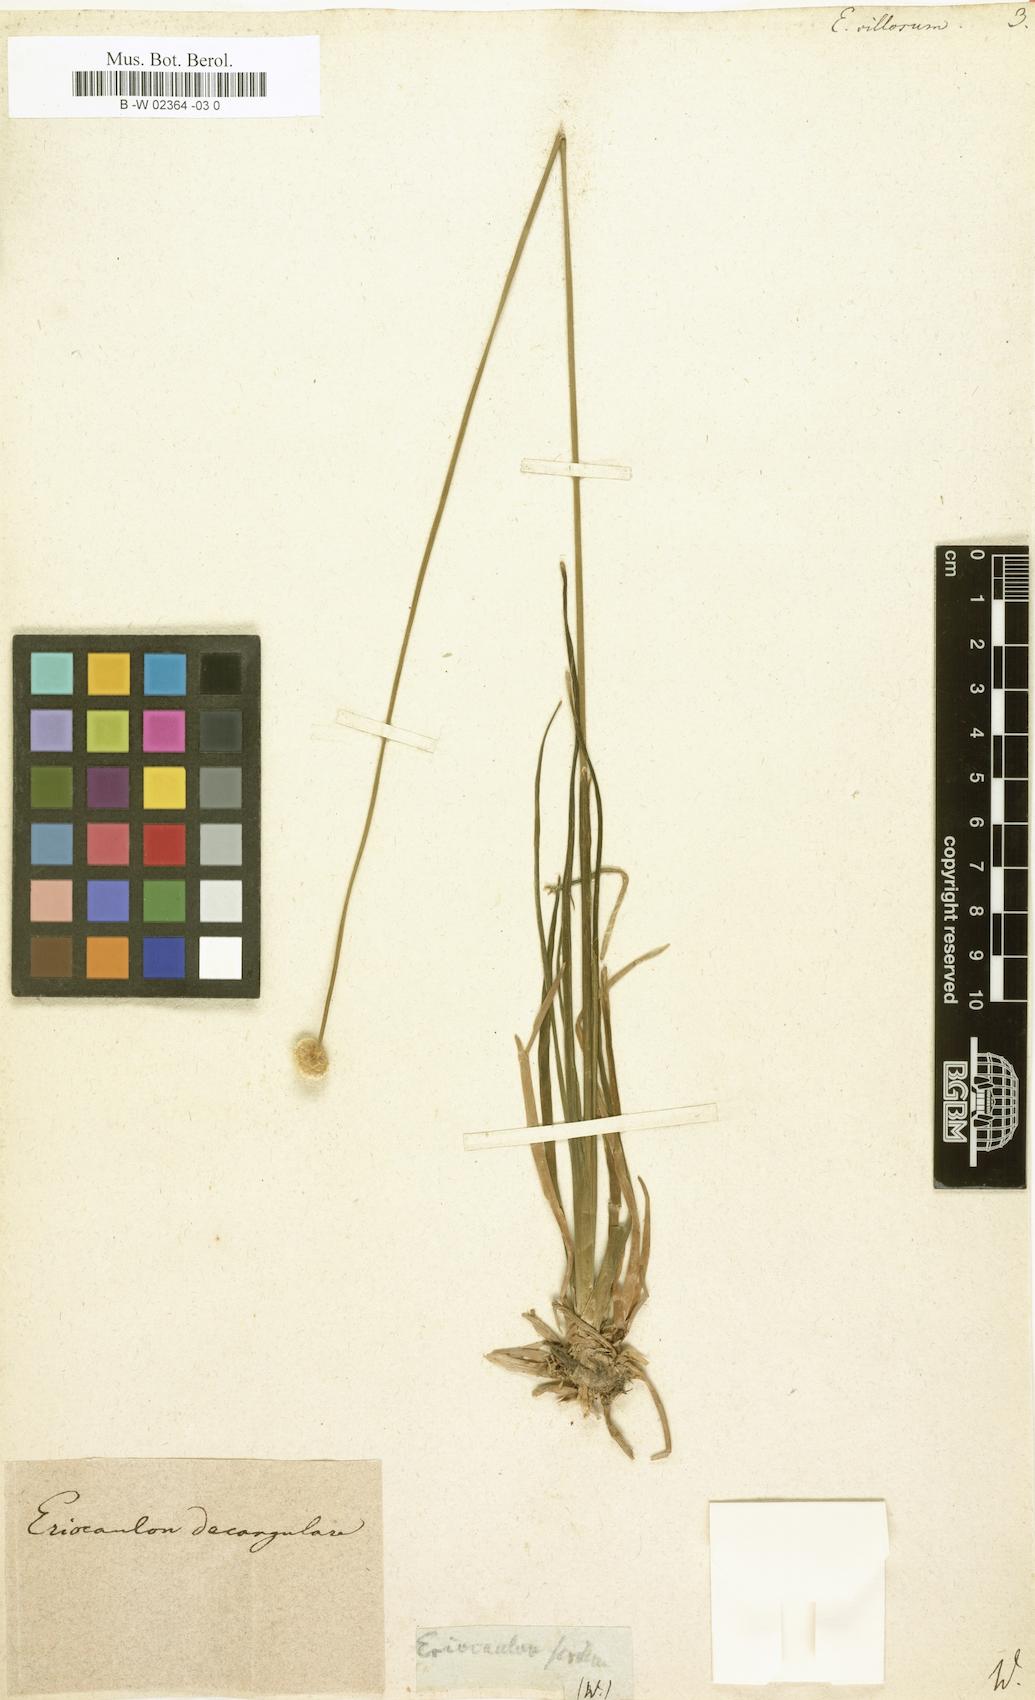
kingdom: Plantae
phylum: Tracheophyta
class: Liliopsida
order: Poales
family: Eriocaulaceae
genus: Eriocaulon
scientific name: Eriocaulon decangulare
